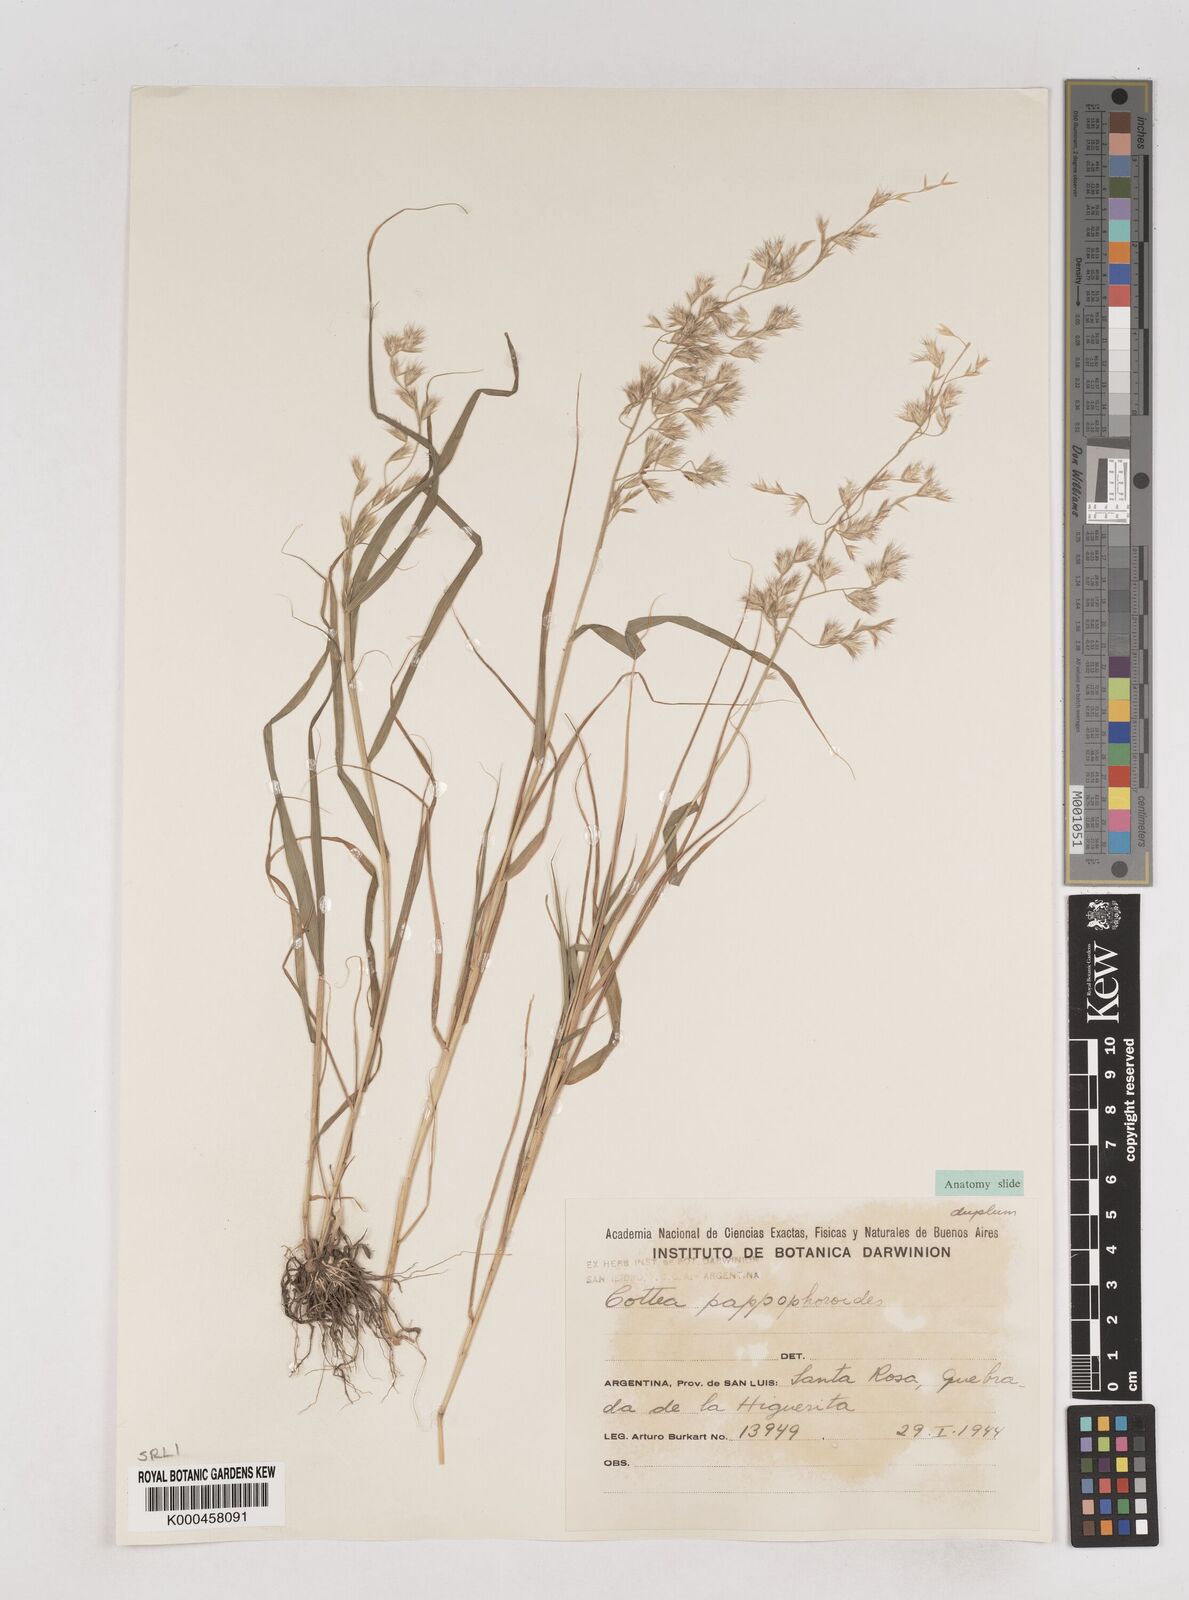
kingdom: Plantae
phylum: Tracheophyta
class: Liliopsida
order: Poales
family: Poaceae
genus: Cottea
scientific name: Cottea
